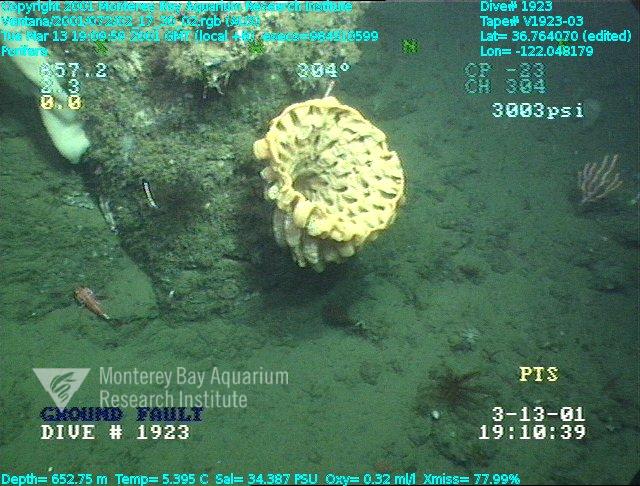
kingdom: Animalia
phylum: Porifera
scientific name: Porifera
